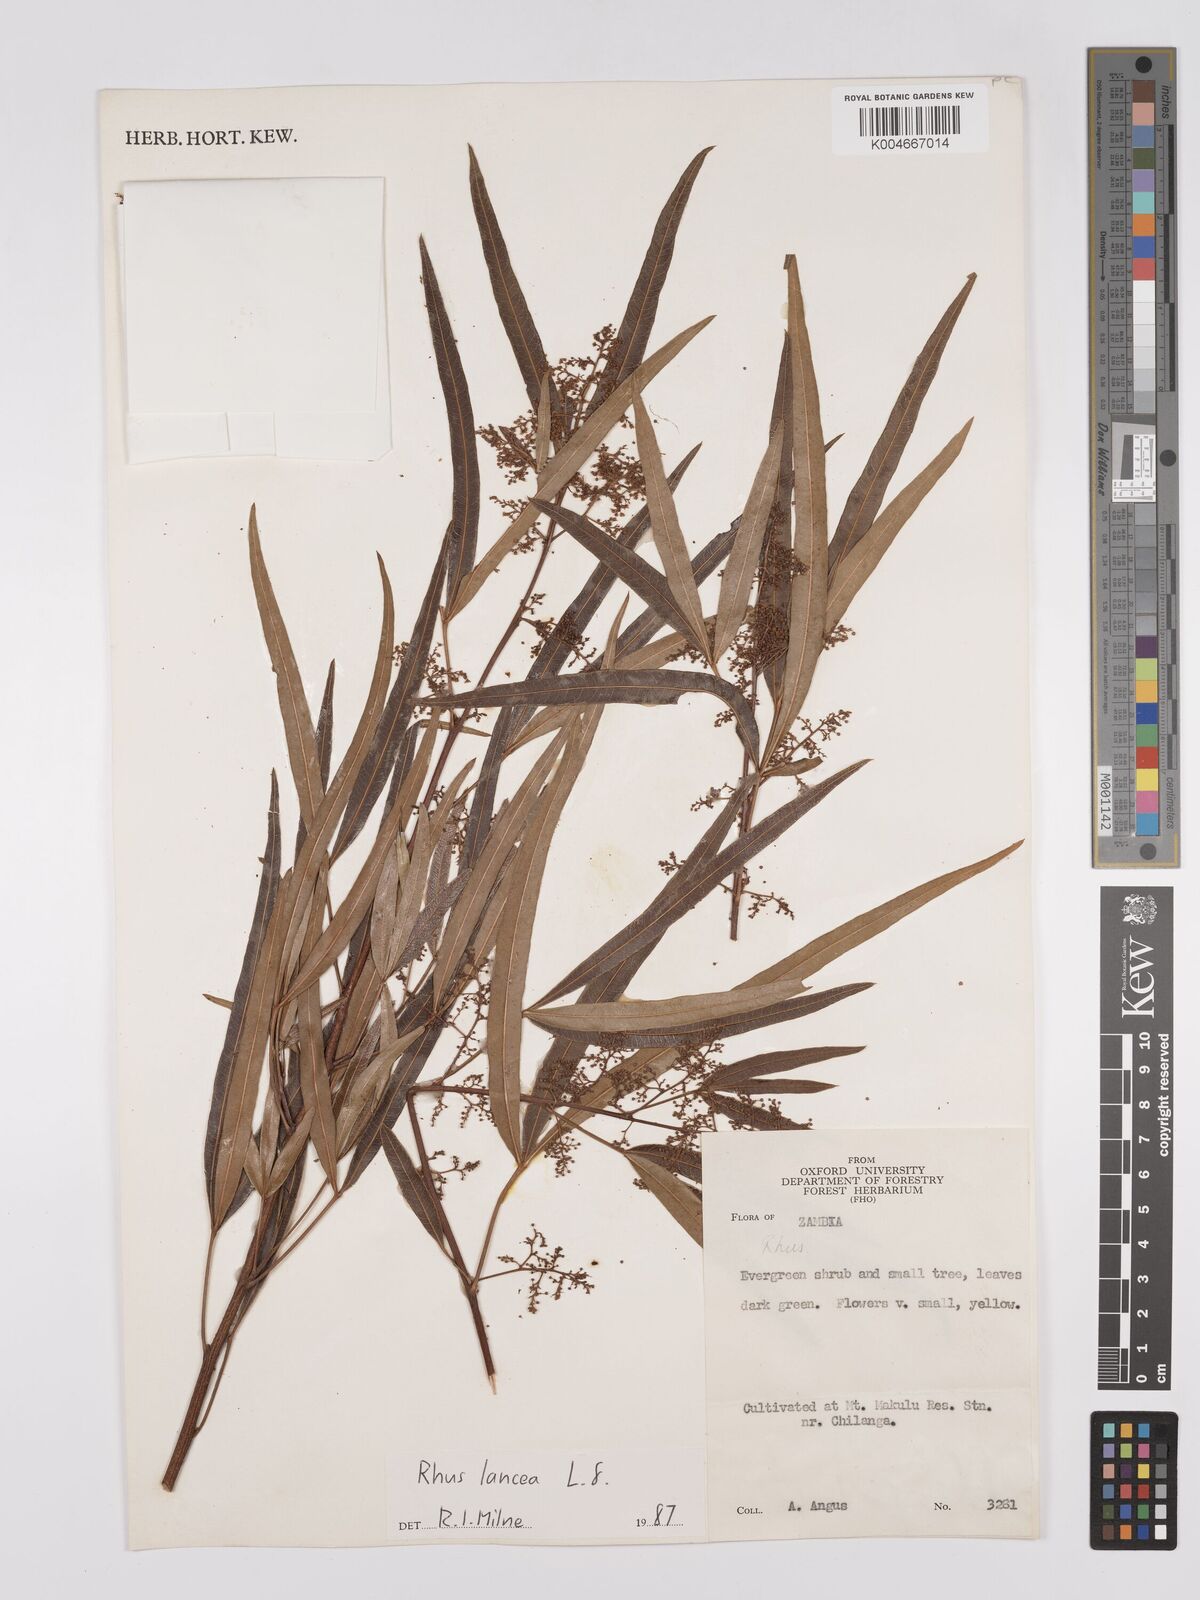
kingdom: Plantae
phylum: Tracheophyta
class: Magnoliopsida
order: Sapindales
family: Anacardiaceae
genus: Searsia
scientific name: Searsia lancea
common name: Cashew
